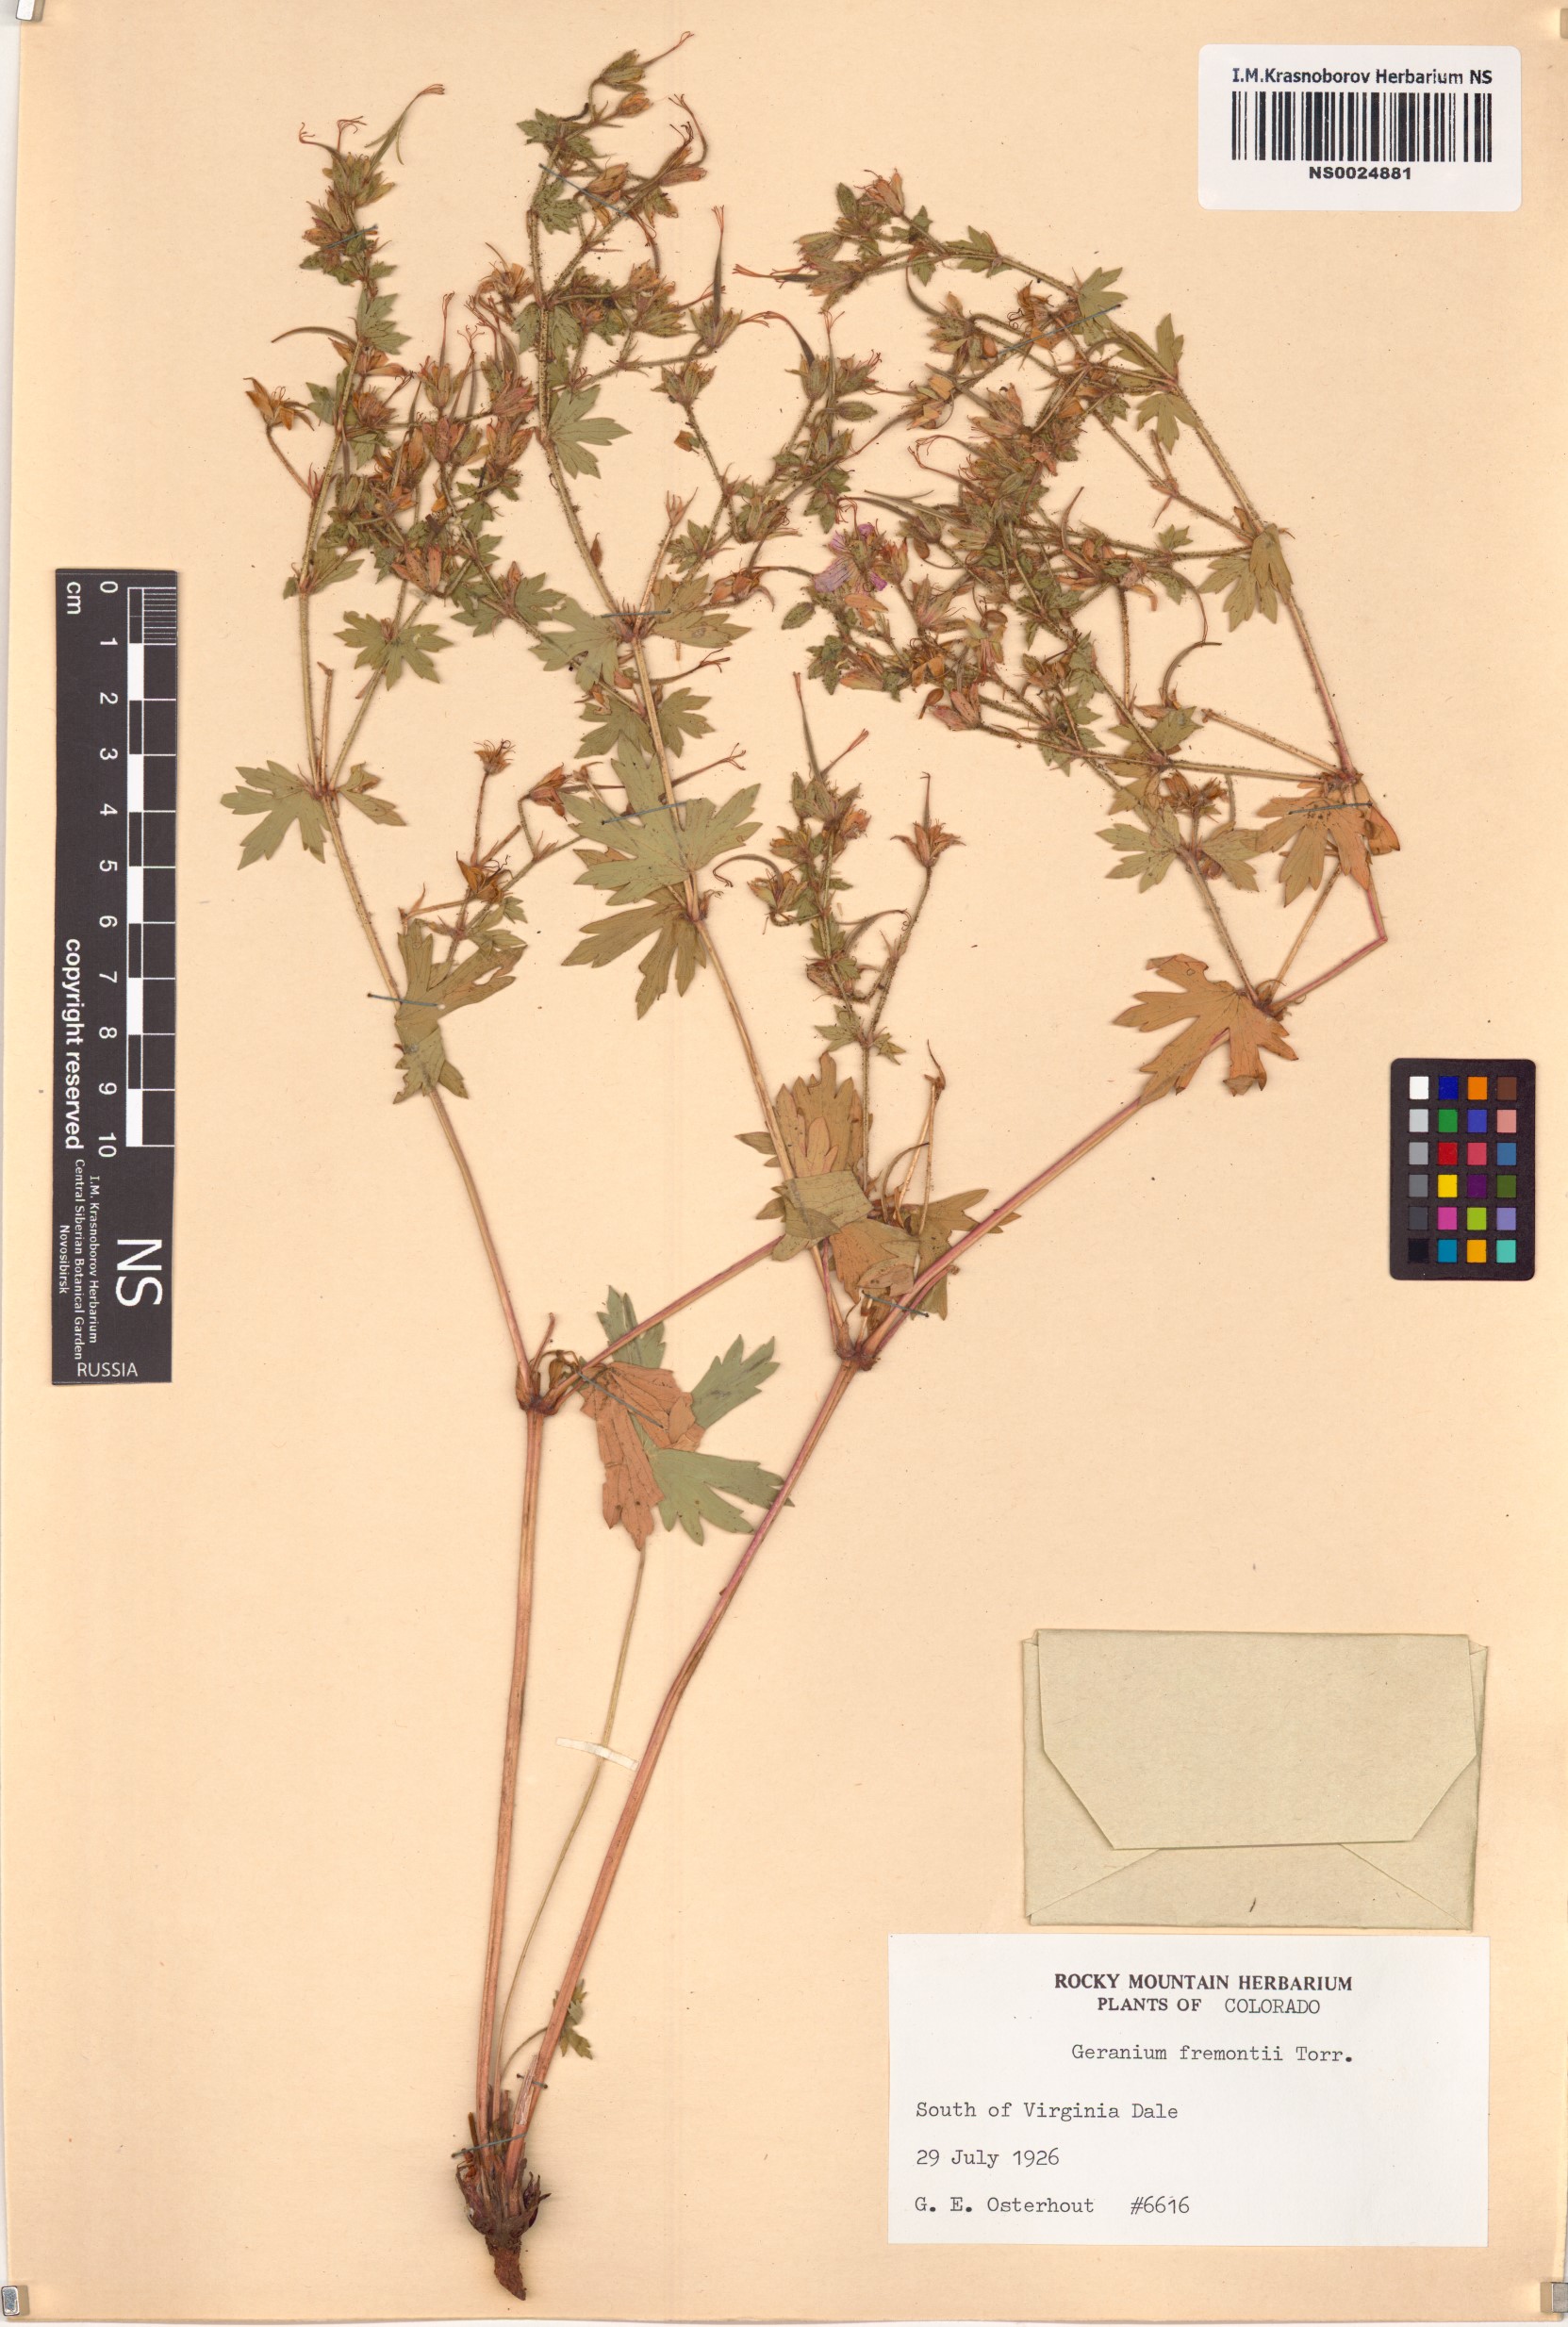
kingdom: Plantae
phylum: Tracheophyta
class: Magnoliopsida
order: Geraniales
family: Geraniaceae
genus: Geranium
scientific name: Geranium caespitosum
